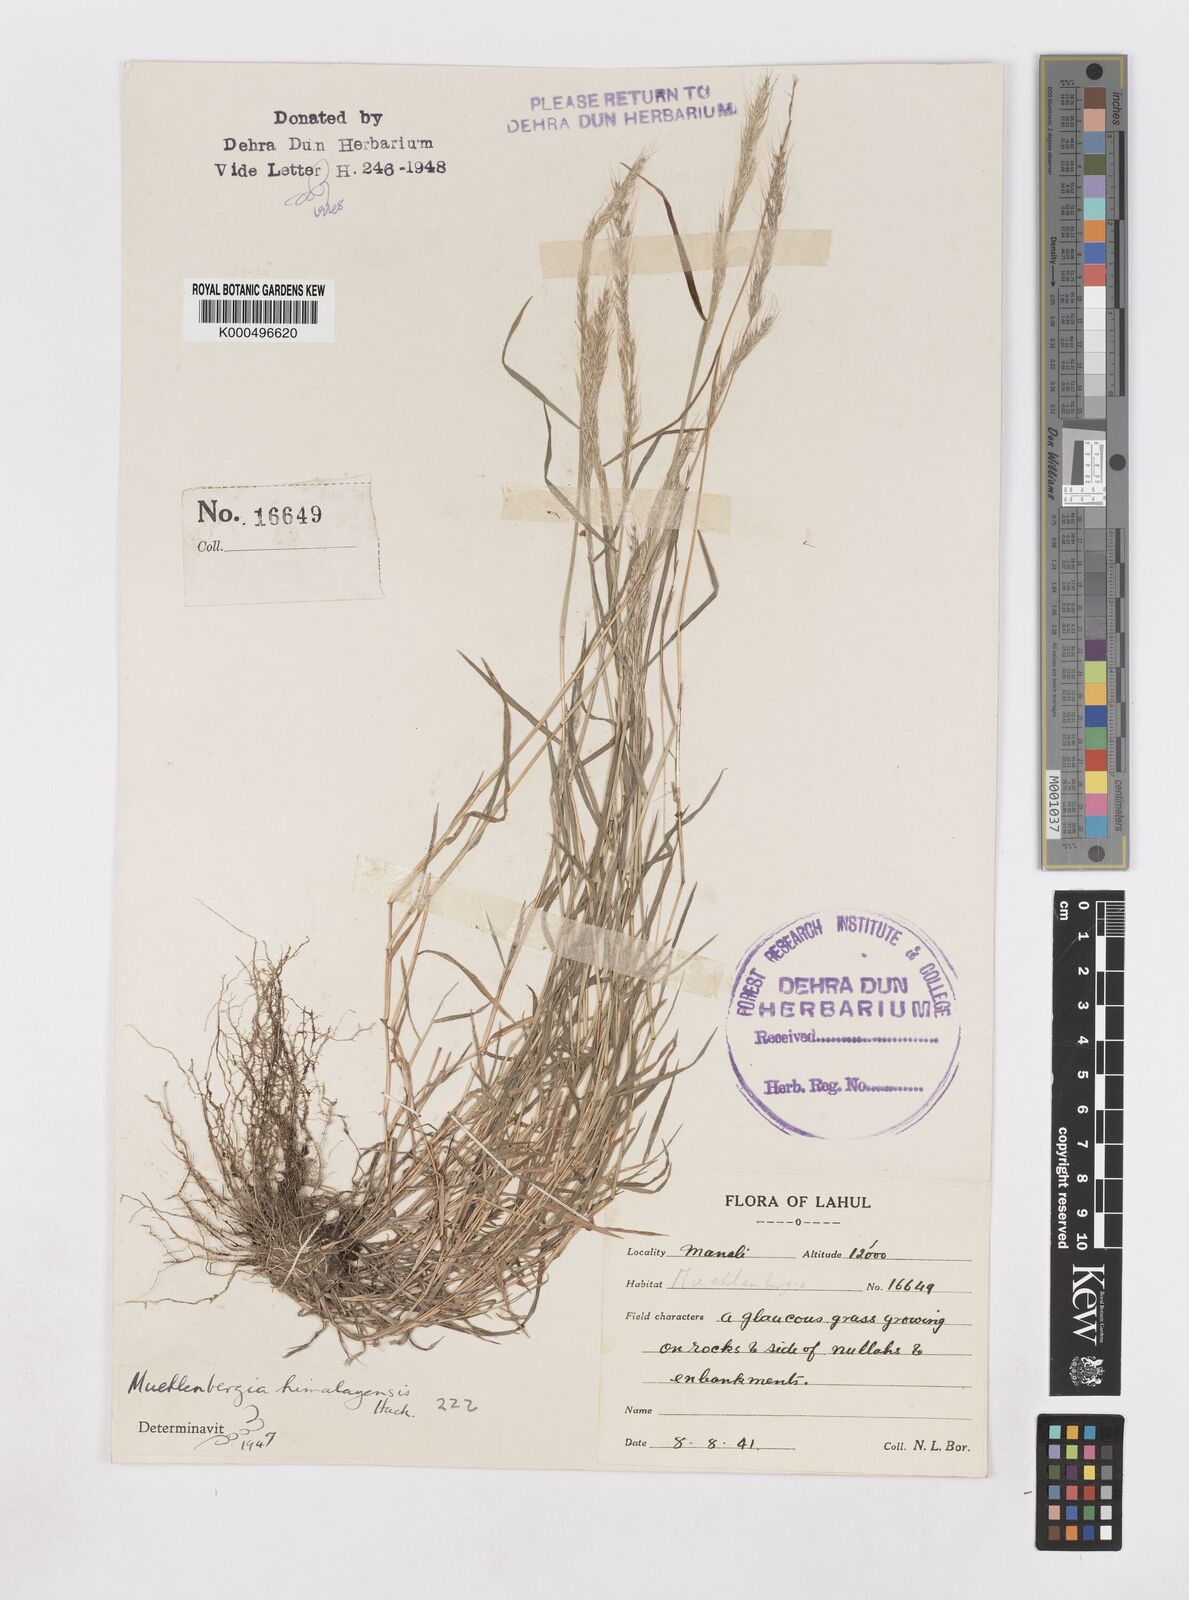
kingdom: Plantae
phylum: Tracheophyta
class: Liliopsida
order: Poales
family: Poaceae
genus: Muhlenbergia
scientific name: Muhlenbergia duthieana
